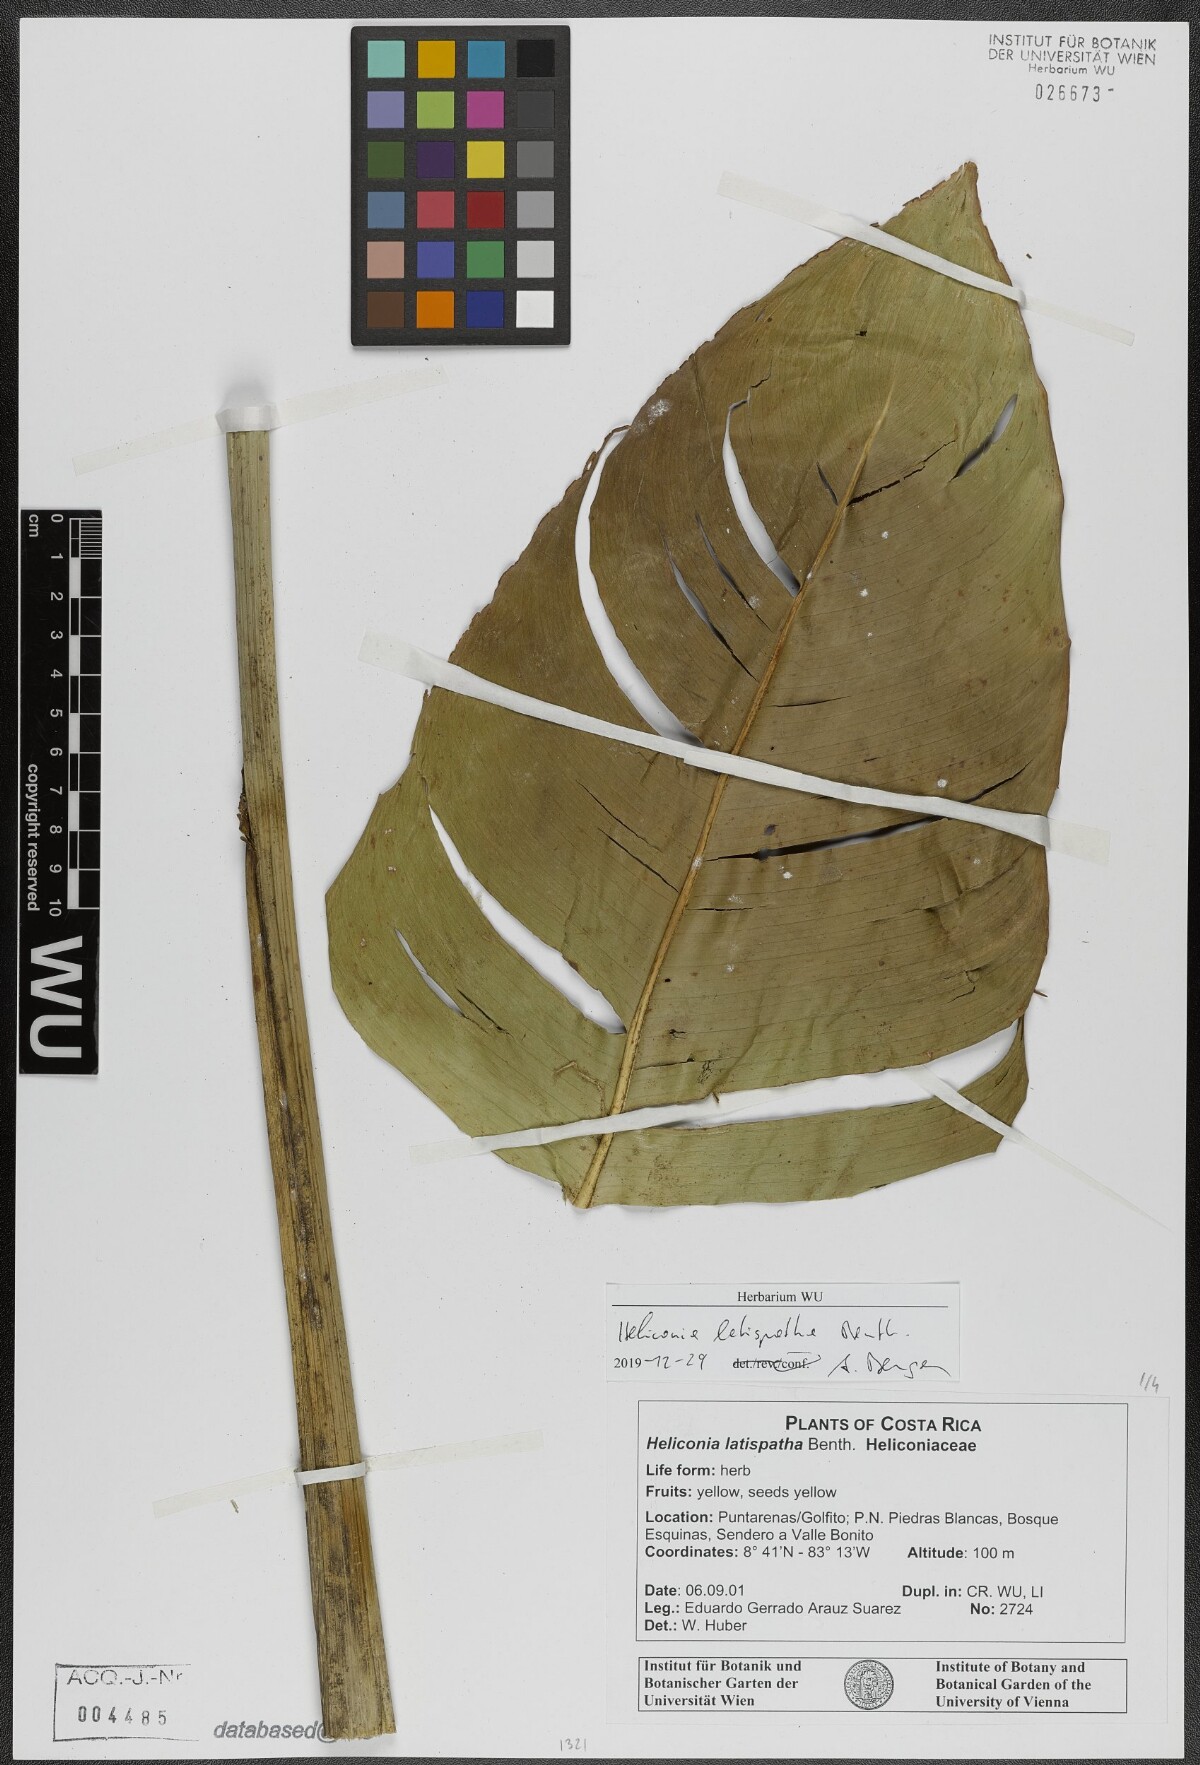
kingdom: Plantae
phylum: Tracheophyta
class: Liliopsida
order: Zingiberales
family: Heliconiaceae
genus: Heliconia
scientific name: Heliconia latispatha
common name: Expanded lobsterclaw
